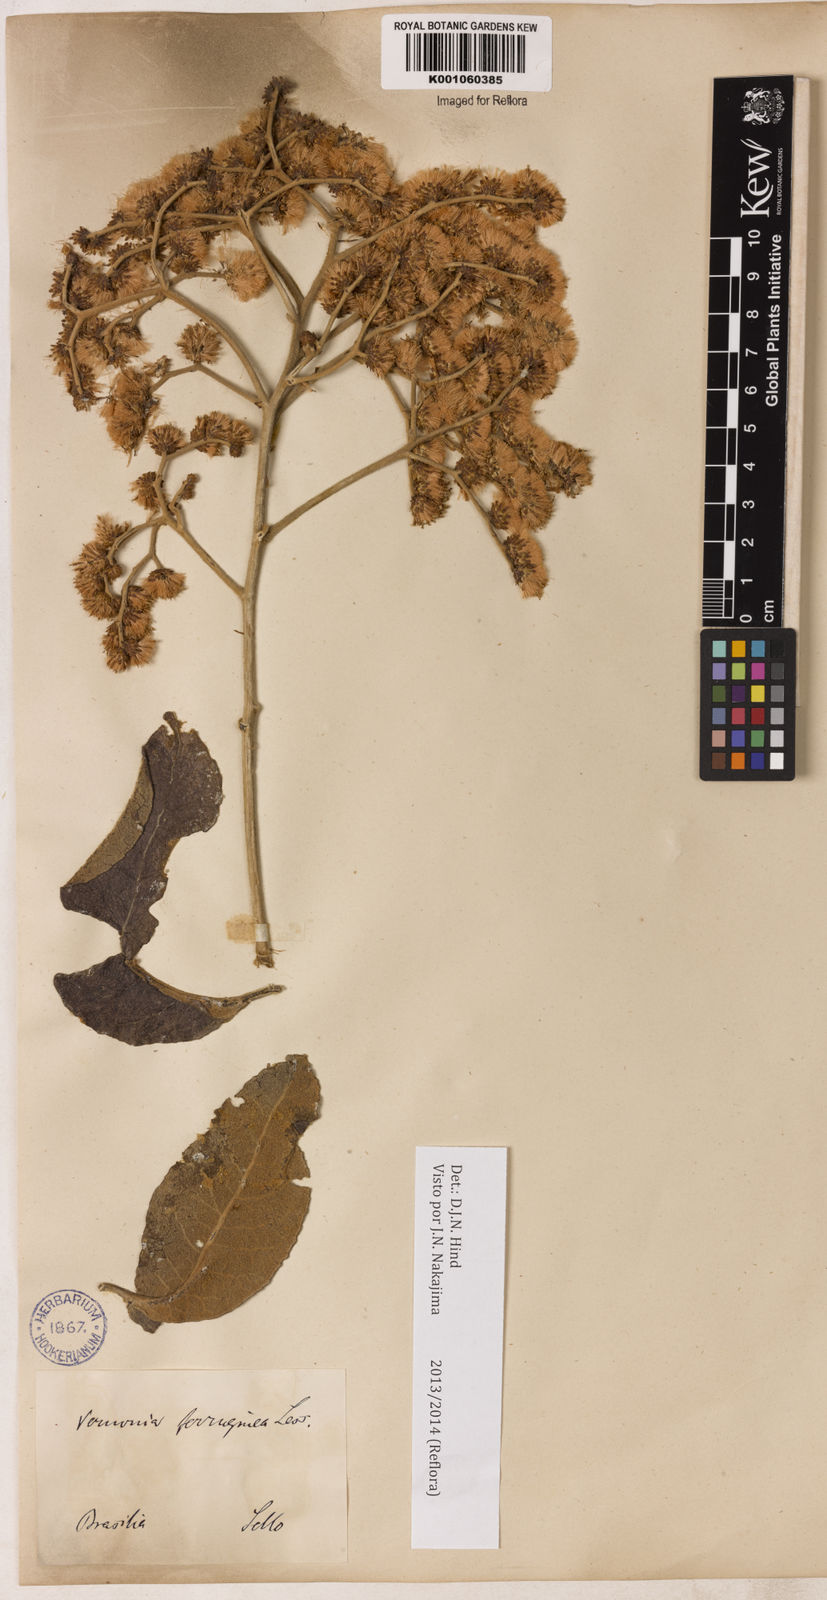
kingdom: Plantae
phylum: Tracheophyta
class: Magnoliopsida
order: Asterales
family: Asteraceae
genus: Vernonanthura
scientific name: Vernonanthura ferruginea
